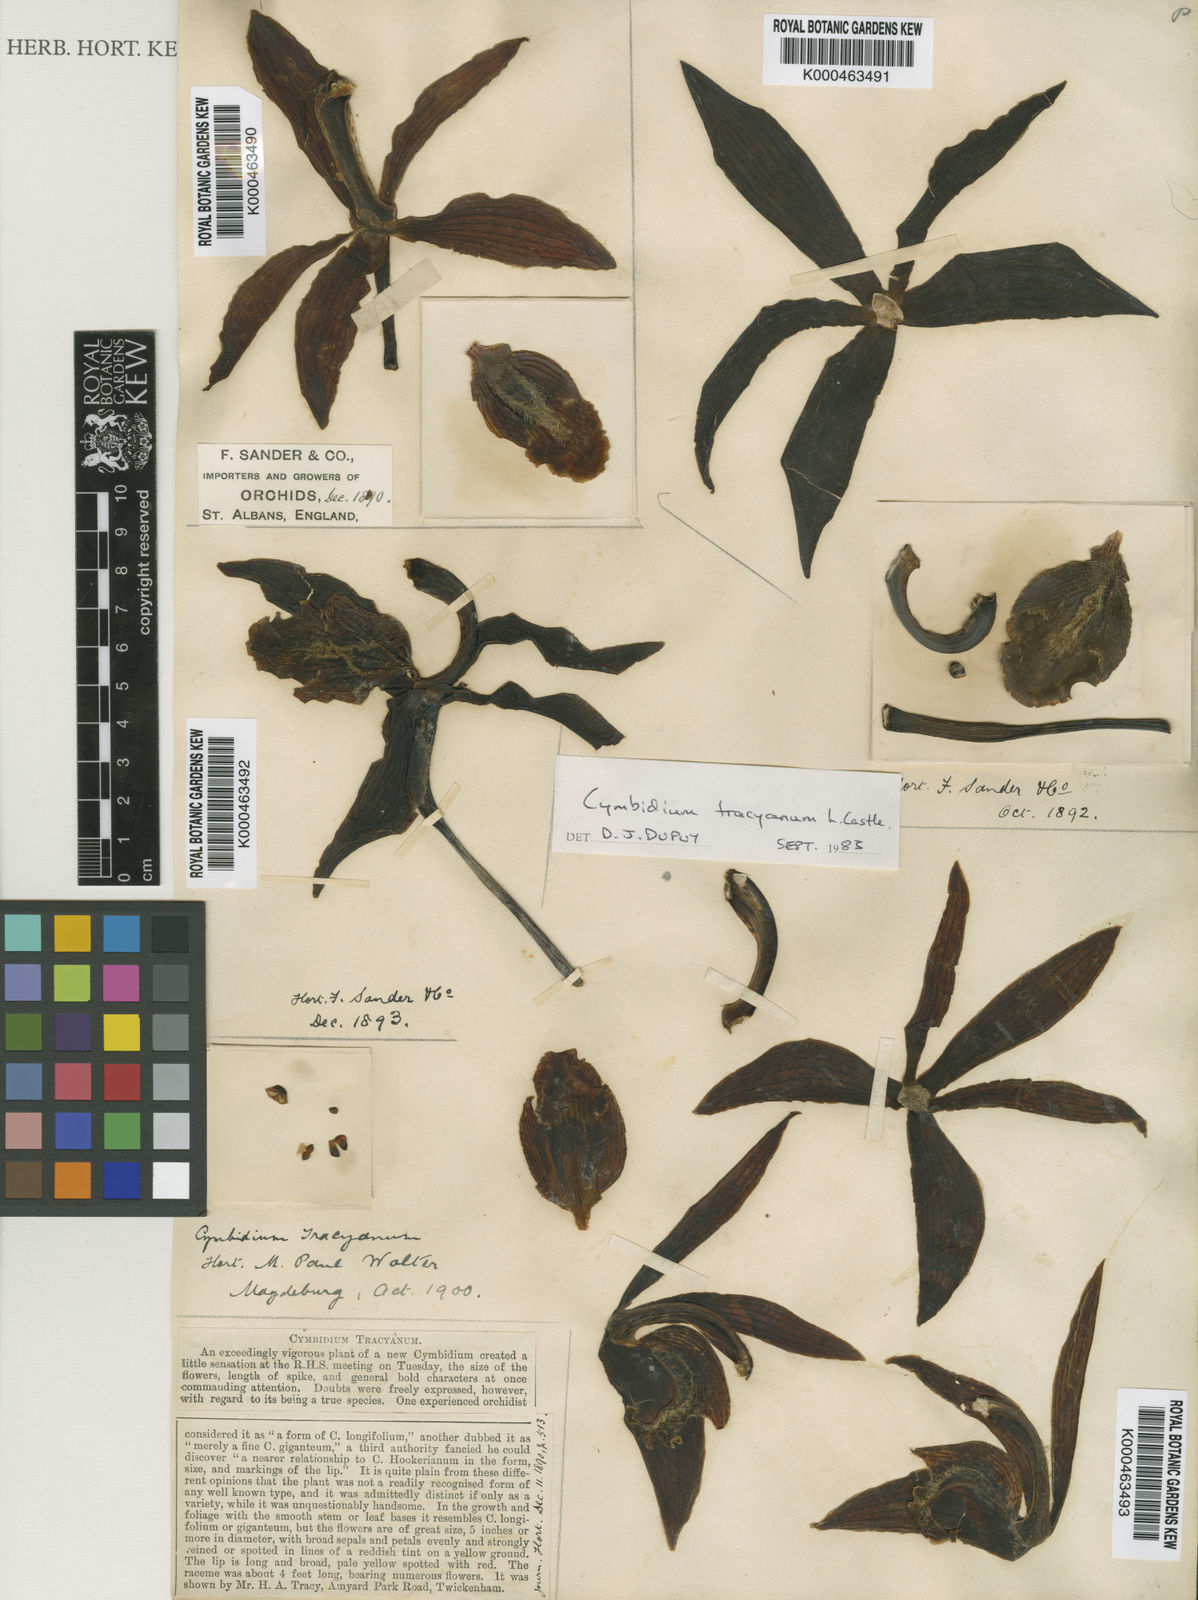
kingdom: Plantae
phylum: Tracheophyta
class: Liliopsida
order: Asparagales
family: Orchidaceae
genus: Cymbidium
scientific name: Cymbidium tracyanum
